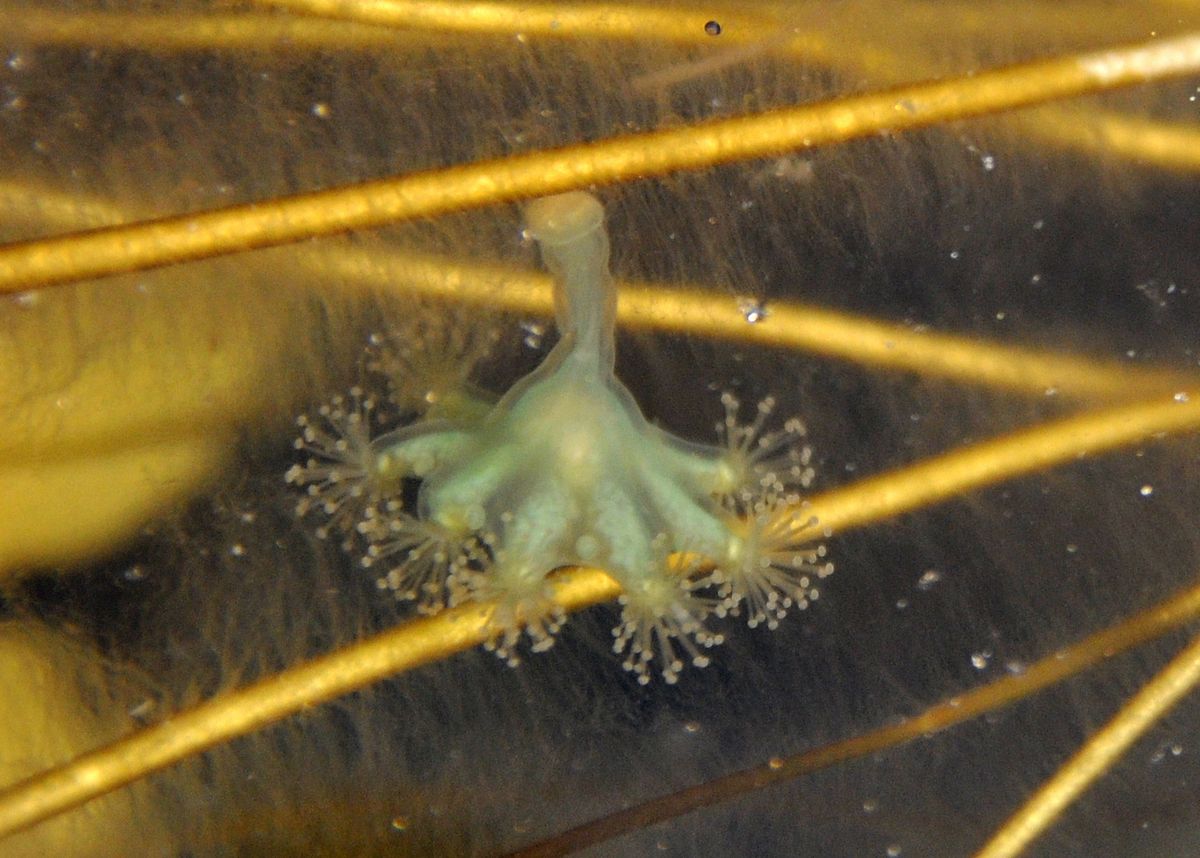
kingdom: Animalia
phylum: Cnidaria
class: Staurozoa
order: Stauromedusae
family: Haliclystidae
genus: Haliclystus
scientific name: Haliclystus auricula
